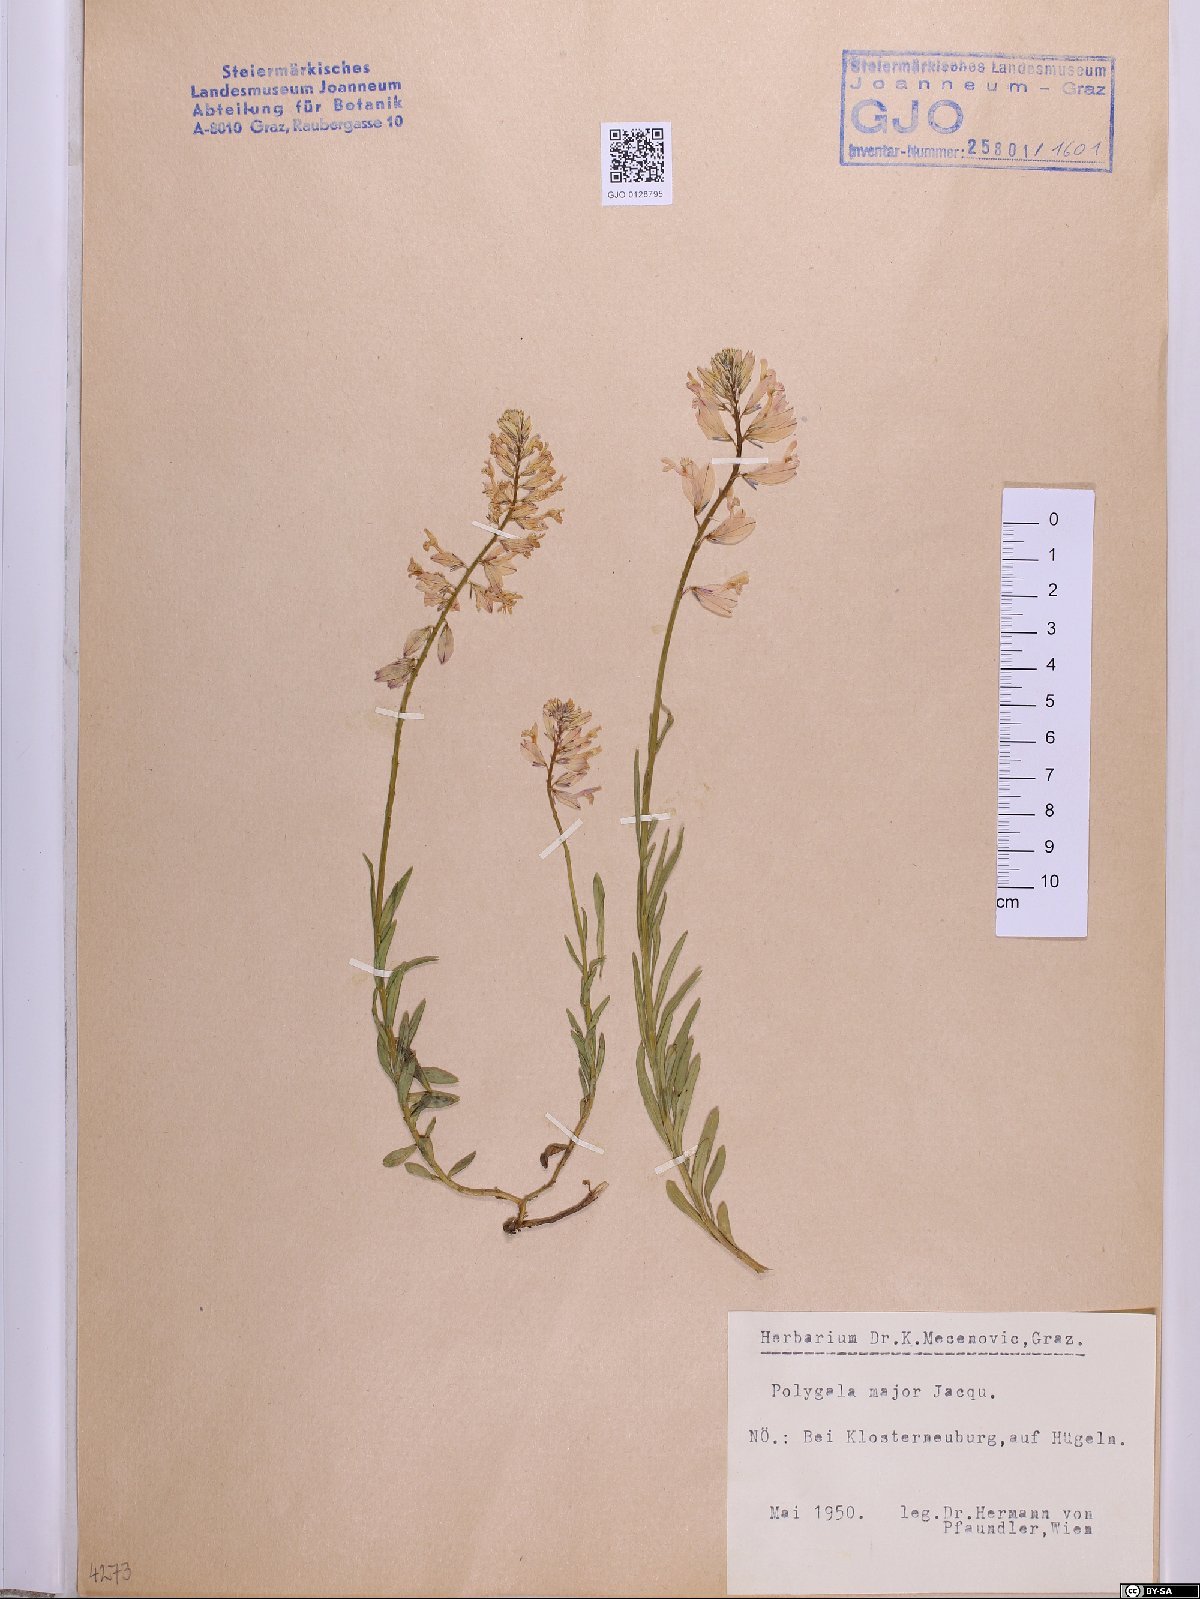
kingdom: Plantae
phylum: Tracheophyta
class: Magnoliopsida
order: Fabales
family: Polygalaceae
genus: Polygala
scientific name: Polygala major
